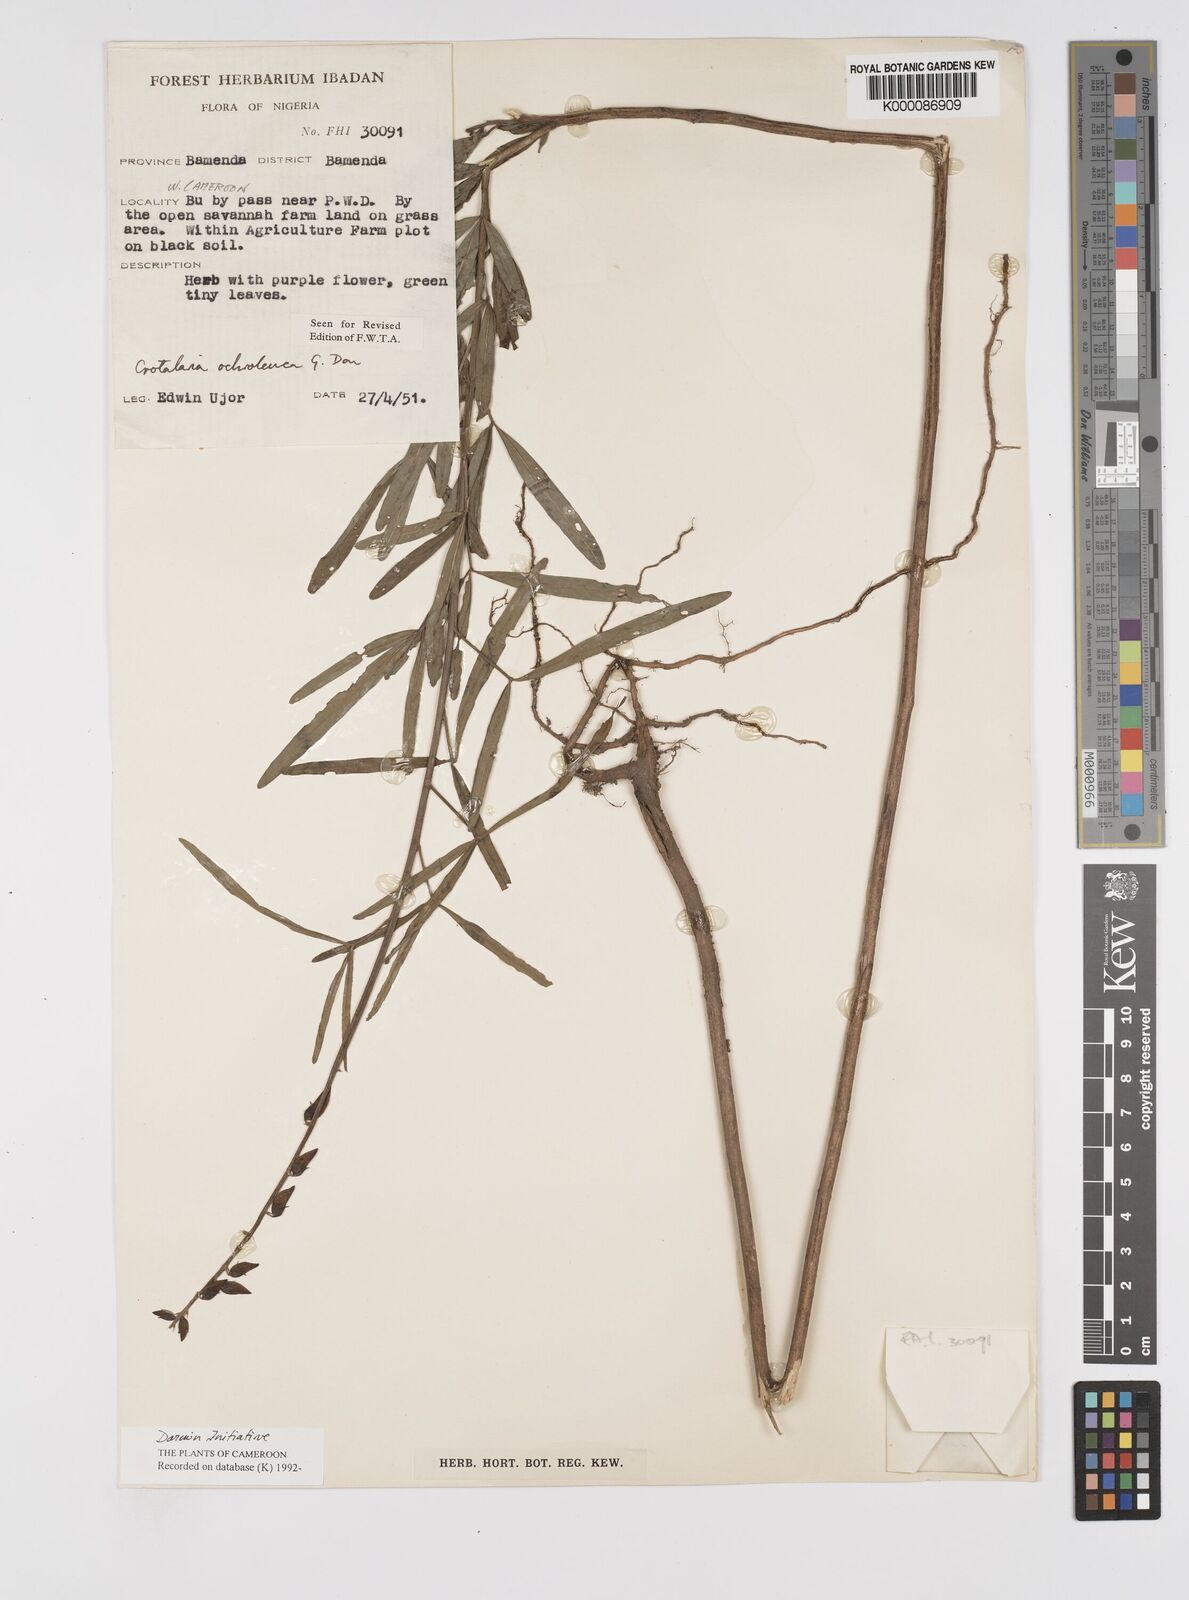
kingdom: Plantae
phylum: Tracheophyta
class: Magnoliopsida
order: Fabales
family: Fabaceae
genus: Crotalaria
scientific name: Crotalaria ochroleuca
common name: Slender leaf rattlebox
